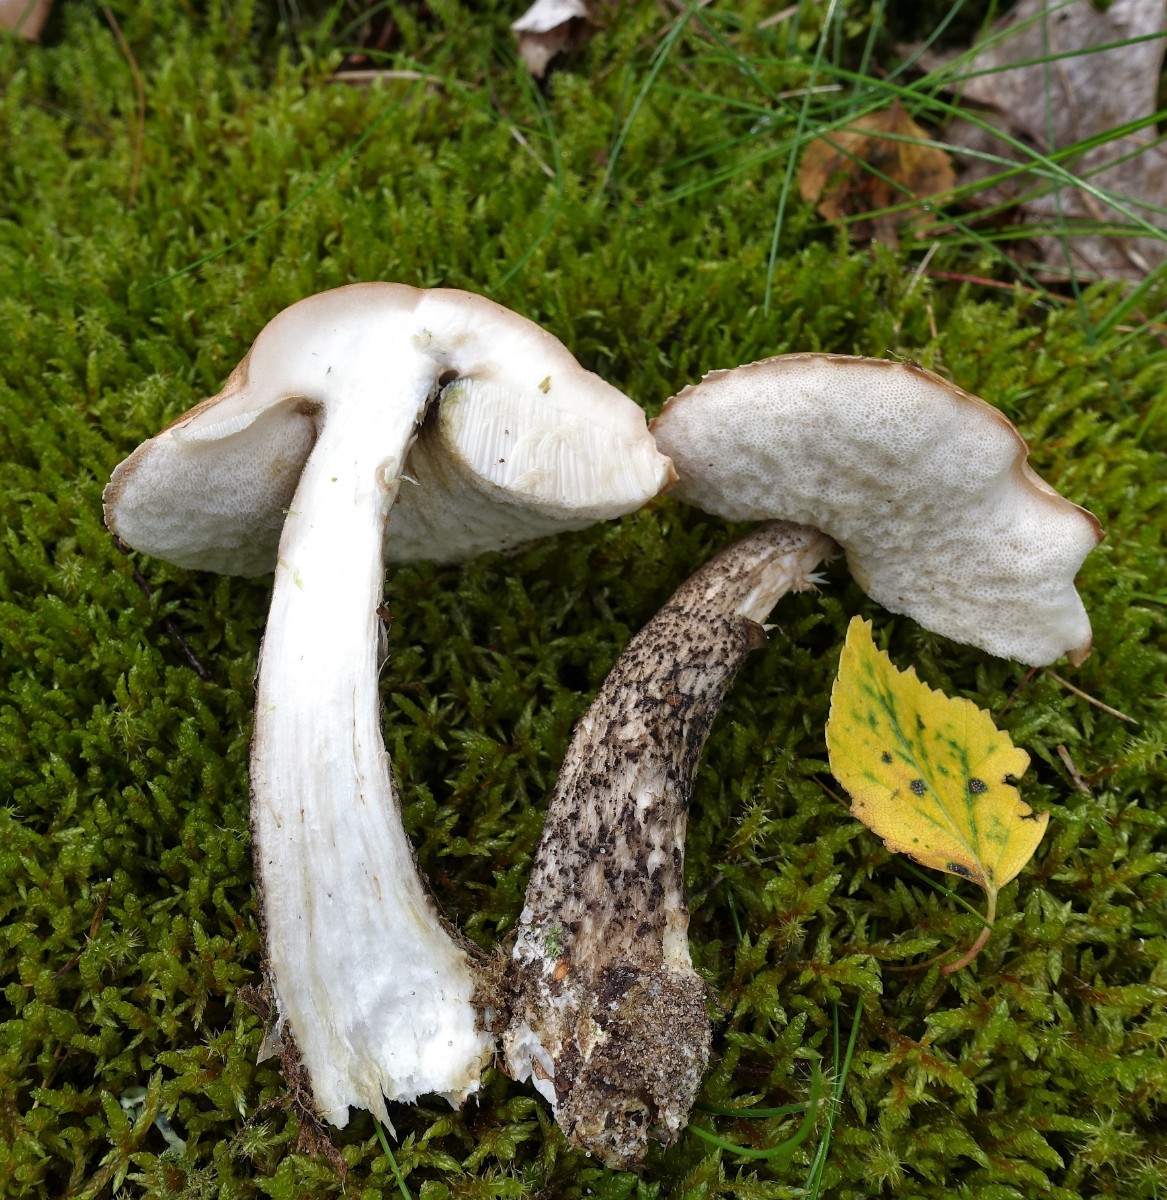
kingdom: Fungi
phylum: Basidiomycota
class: Agaricomycetes
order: Boletales
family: Boletaceae
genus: Leccinum
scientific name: Leccinum scabrum
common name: brun skælrørhat
